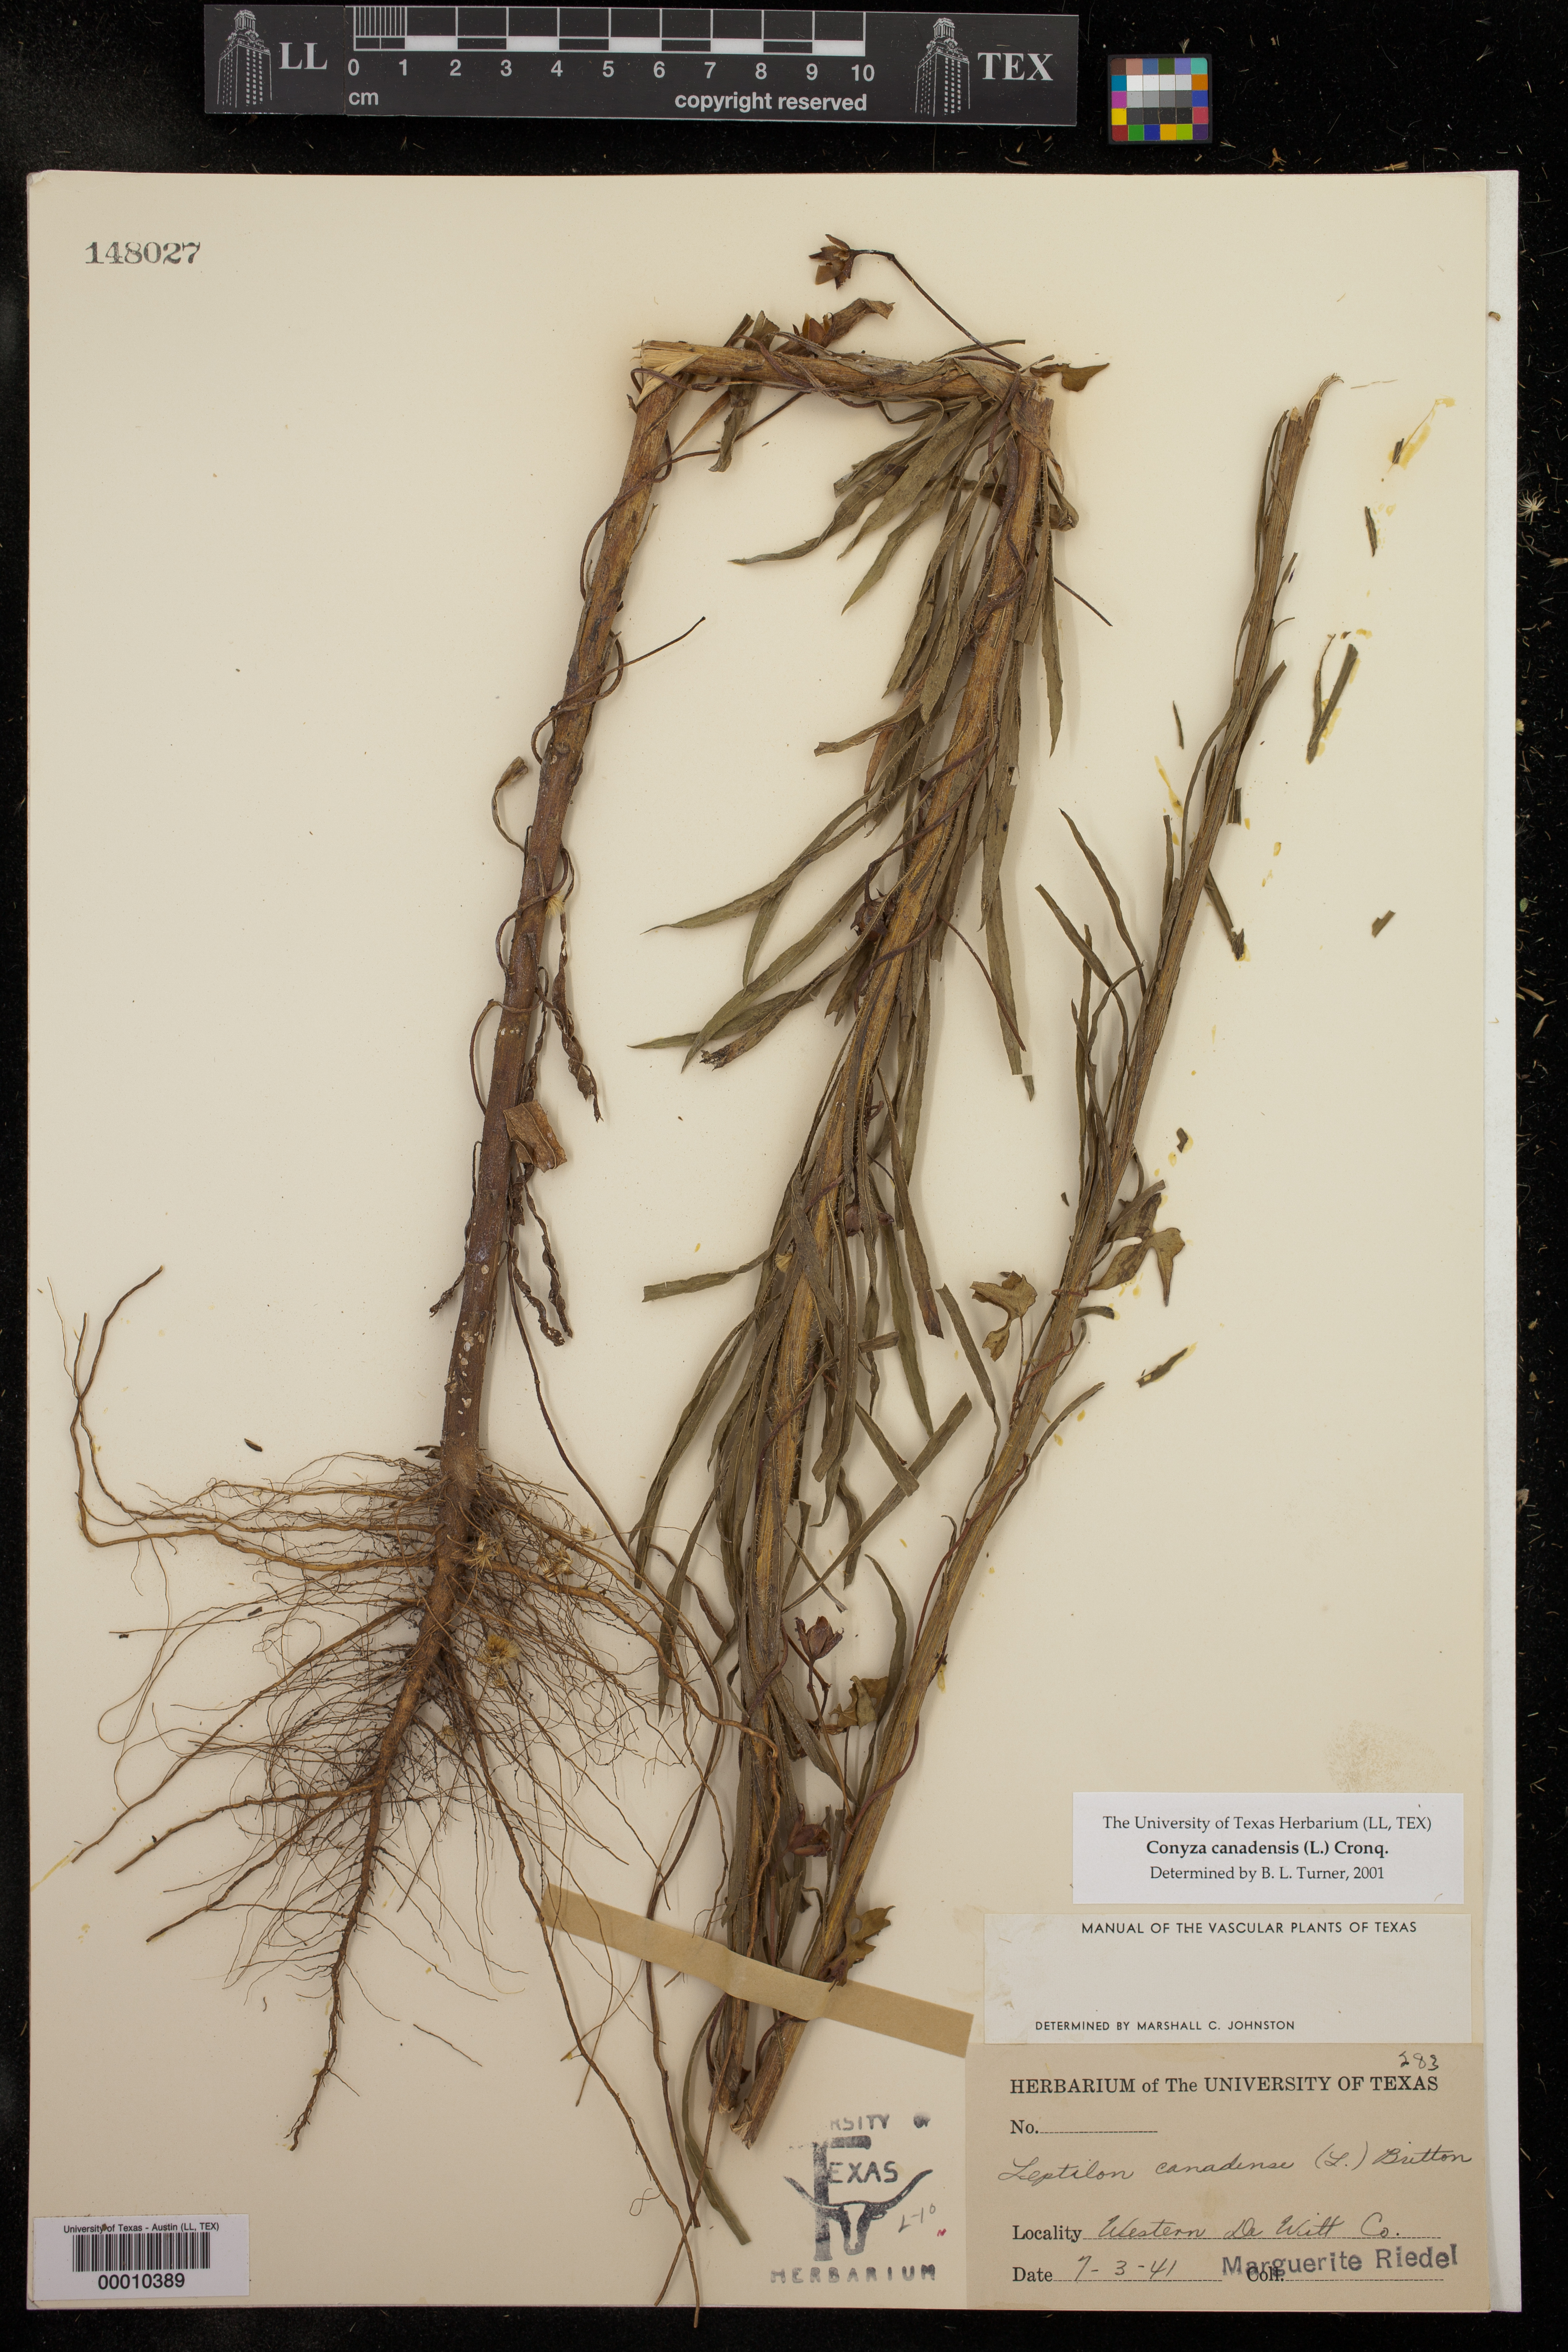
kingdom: Plantae
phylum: Tracheophyta
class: Magnoliopsida
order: Asterales
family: Asteraceae
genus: Erigeron
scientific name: Erigeron canadensis
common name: Canadian fleabane
